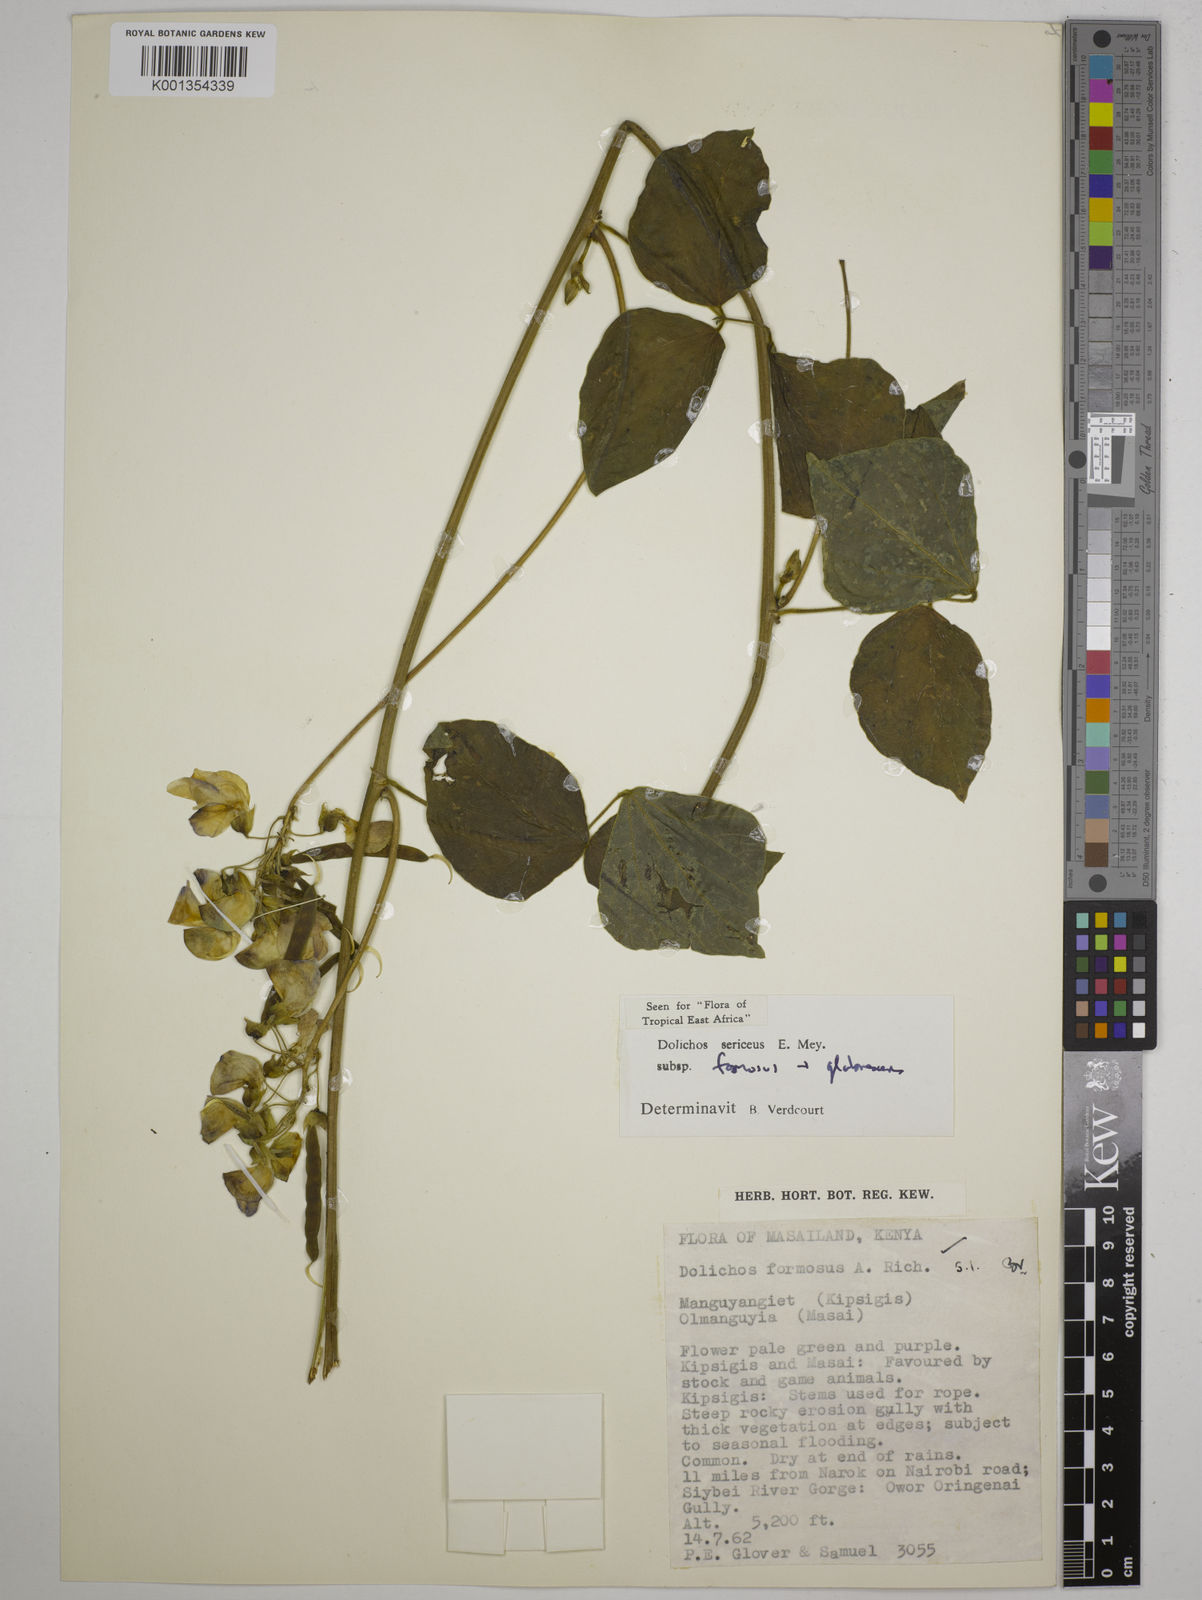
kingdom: Plantae
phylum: Tracheophyta
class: Magnoliopsida
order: Fabales
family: Fabaceae
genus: Dolichos
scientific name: Dolichos sericeus
